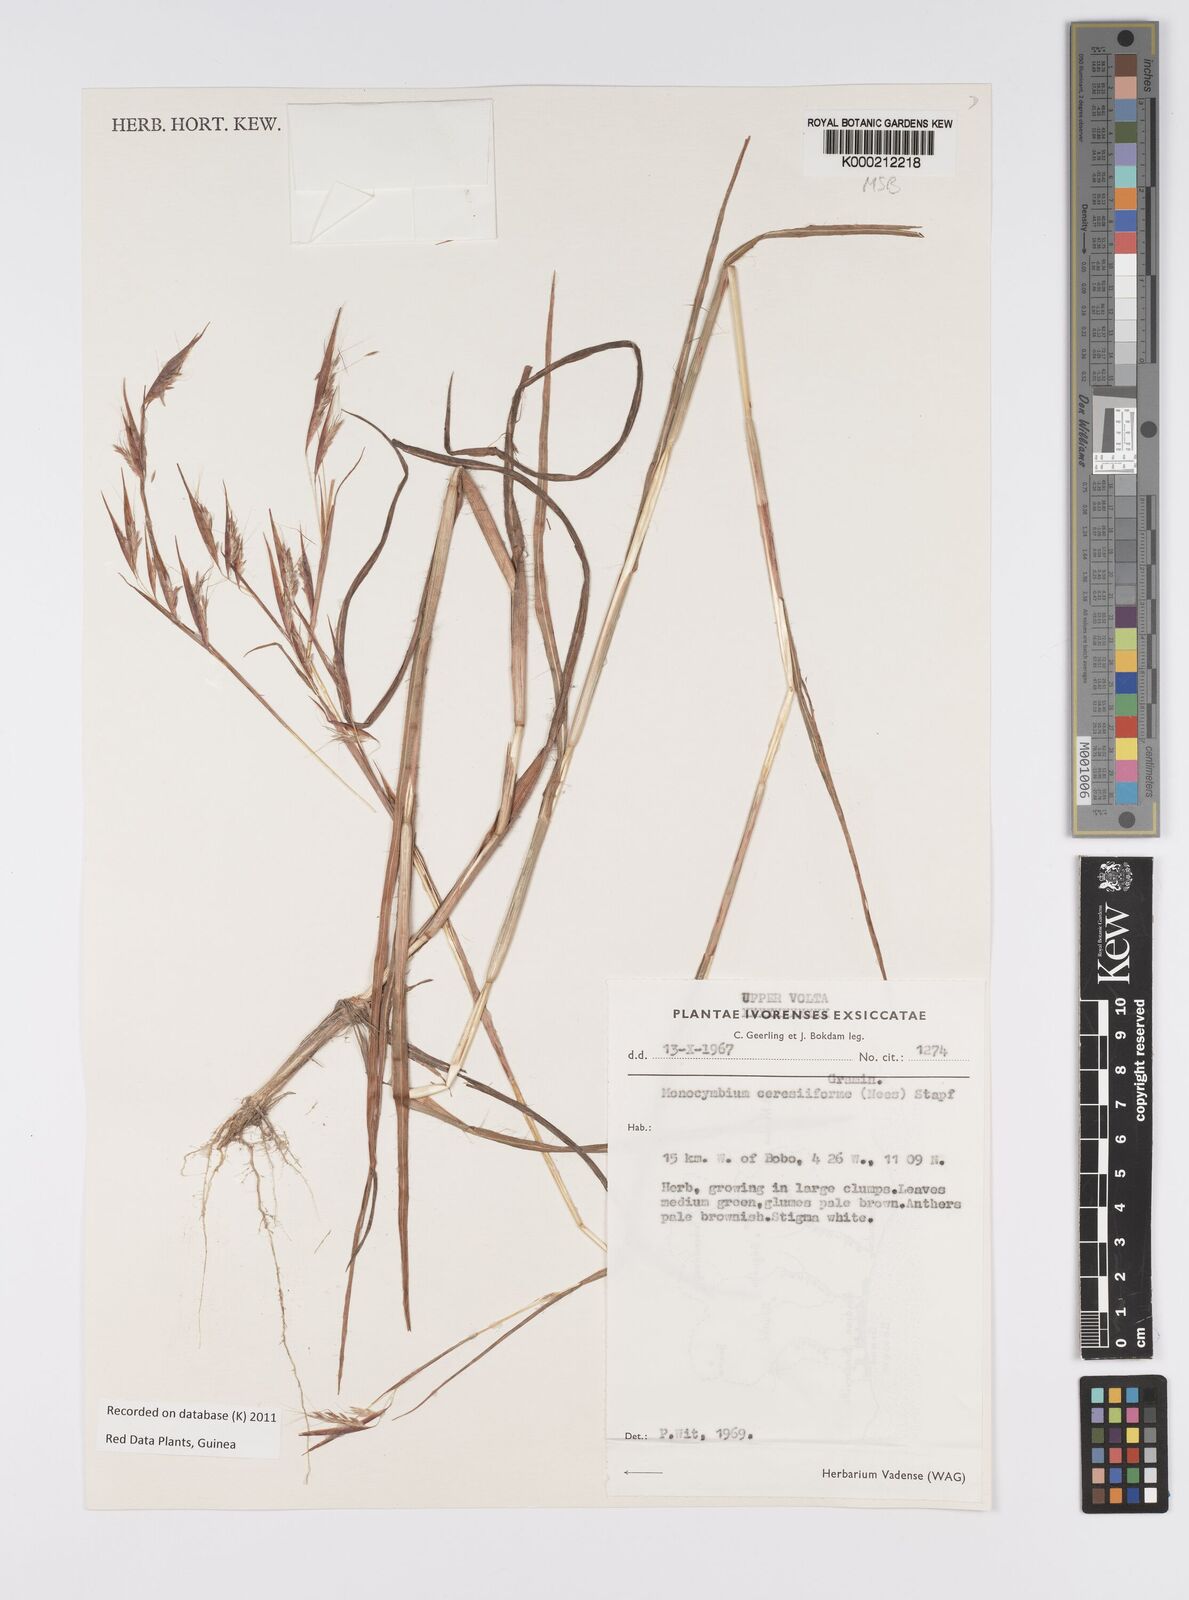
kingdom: Plantae
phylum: Tracheophyta
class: Liliopsida
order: Poales
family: Poaceae
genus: Monocymbium
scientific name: Monocymbium ceresiiforme
